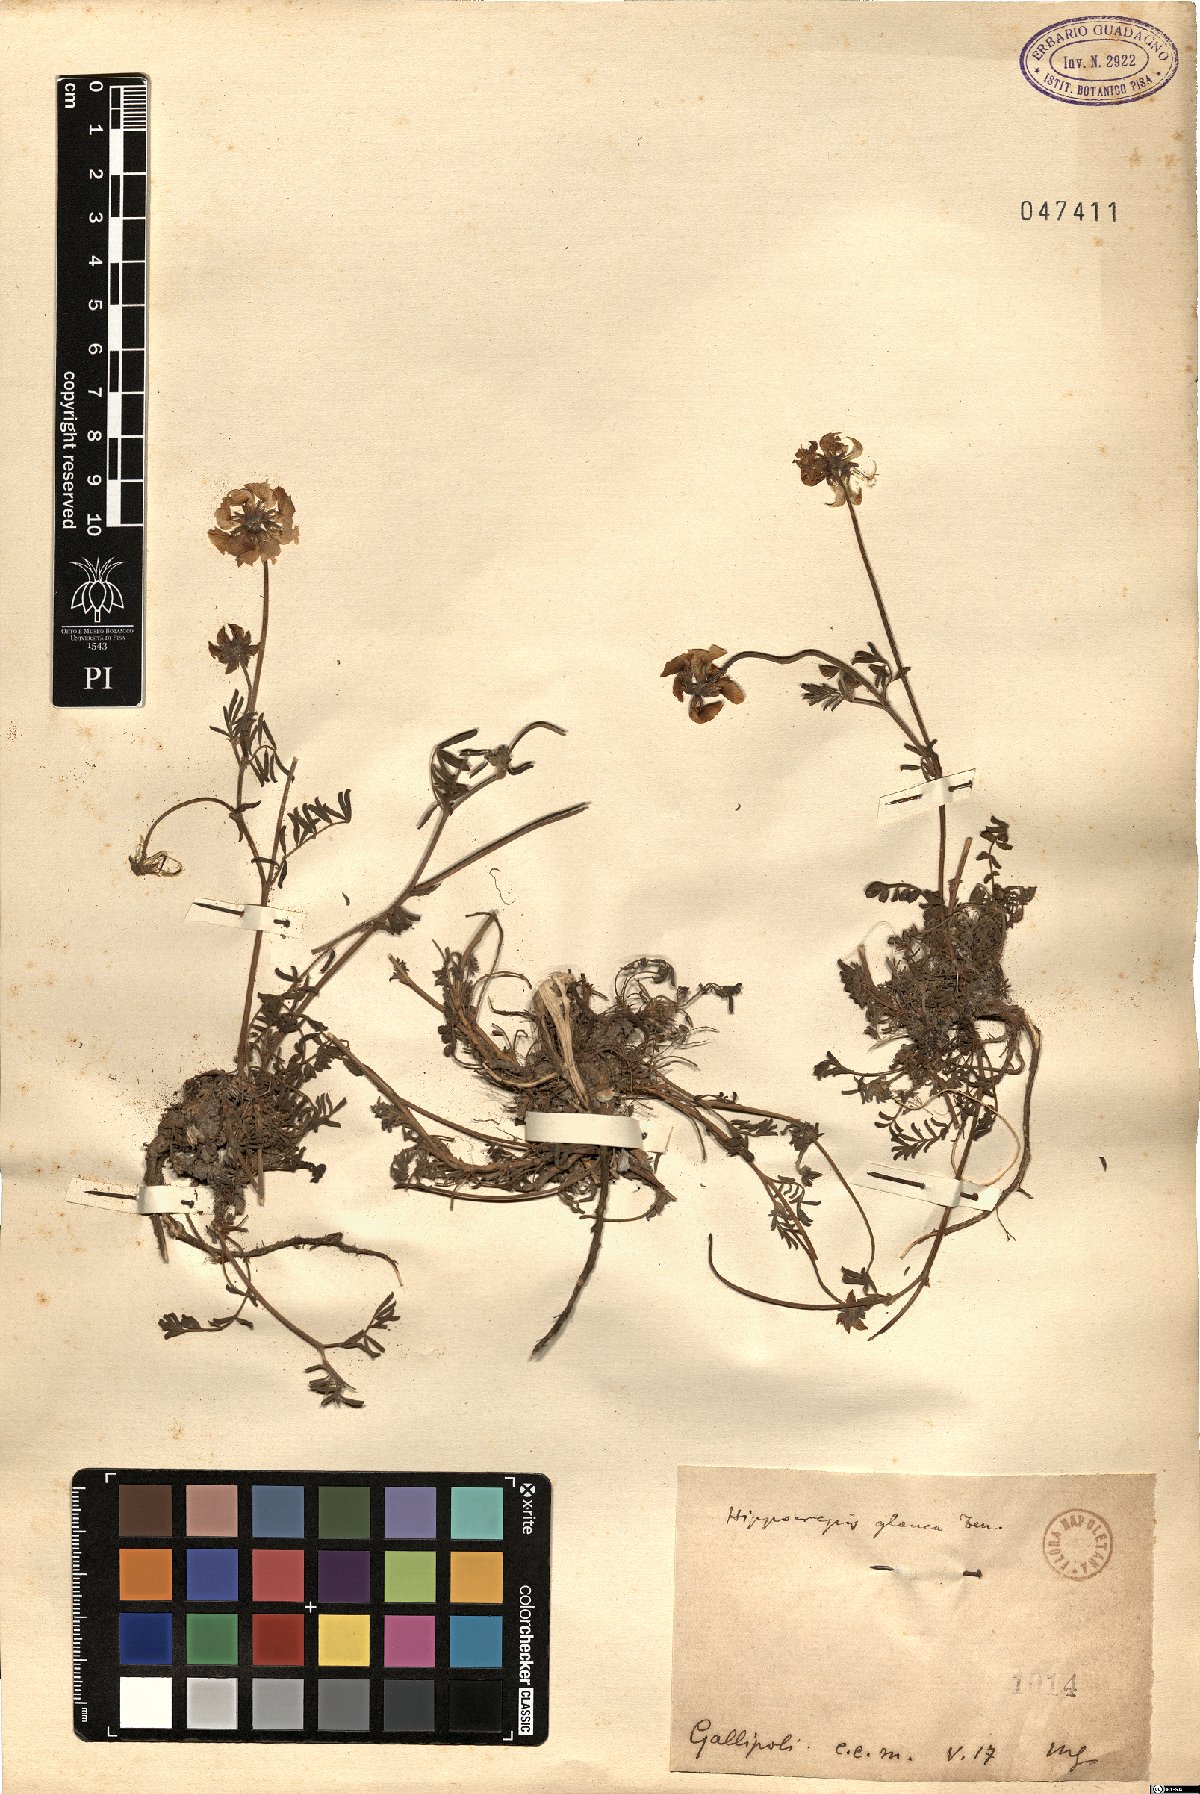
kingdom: Plantae
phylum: Tracheophyta
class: Magnoliopsida
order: Fabales
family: Fabaceae
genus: Hippocrepis
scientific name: Hippocrepis glauca
